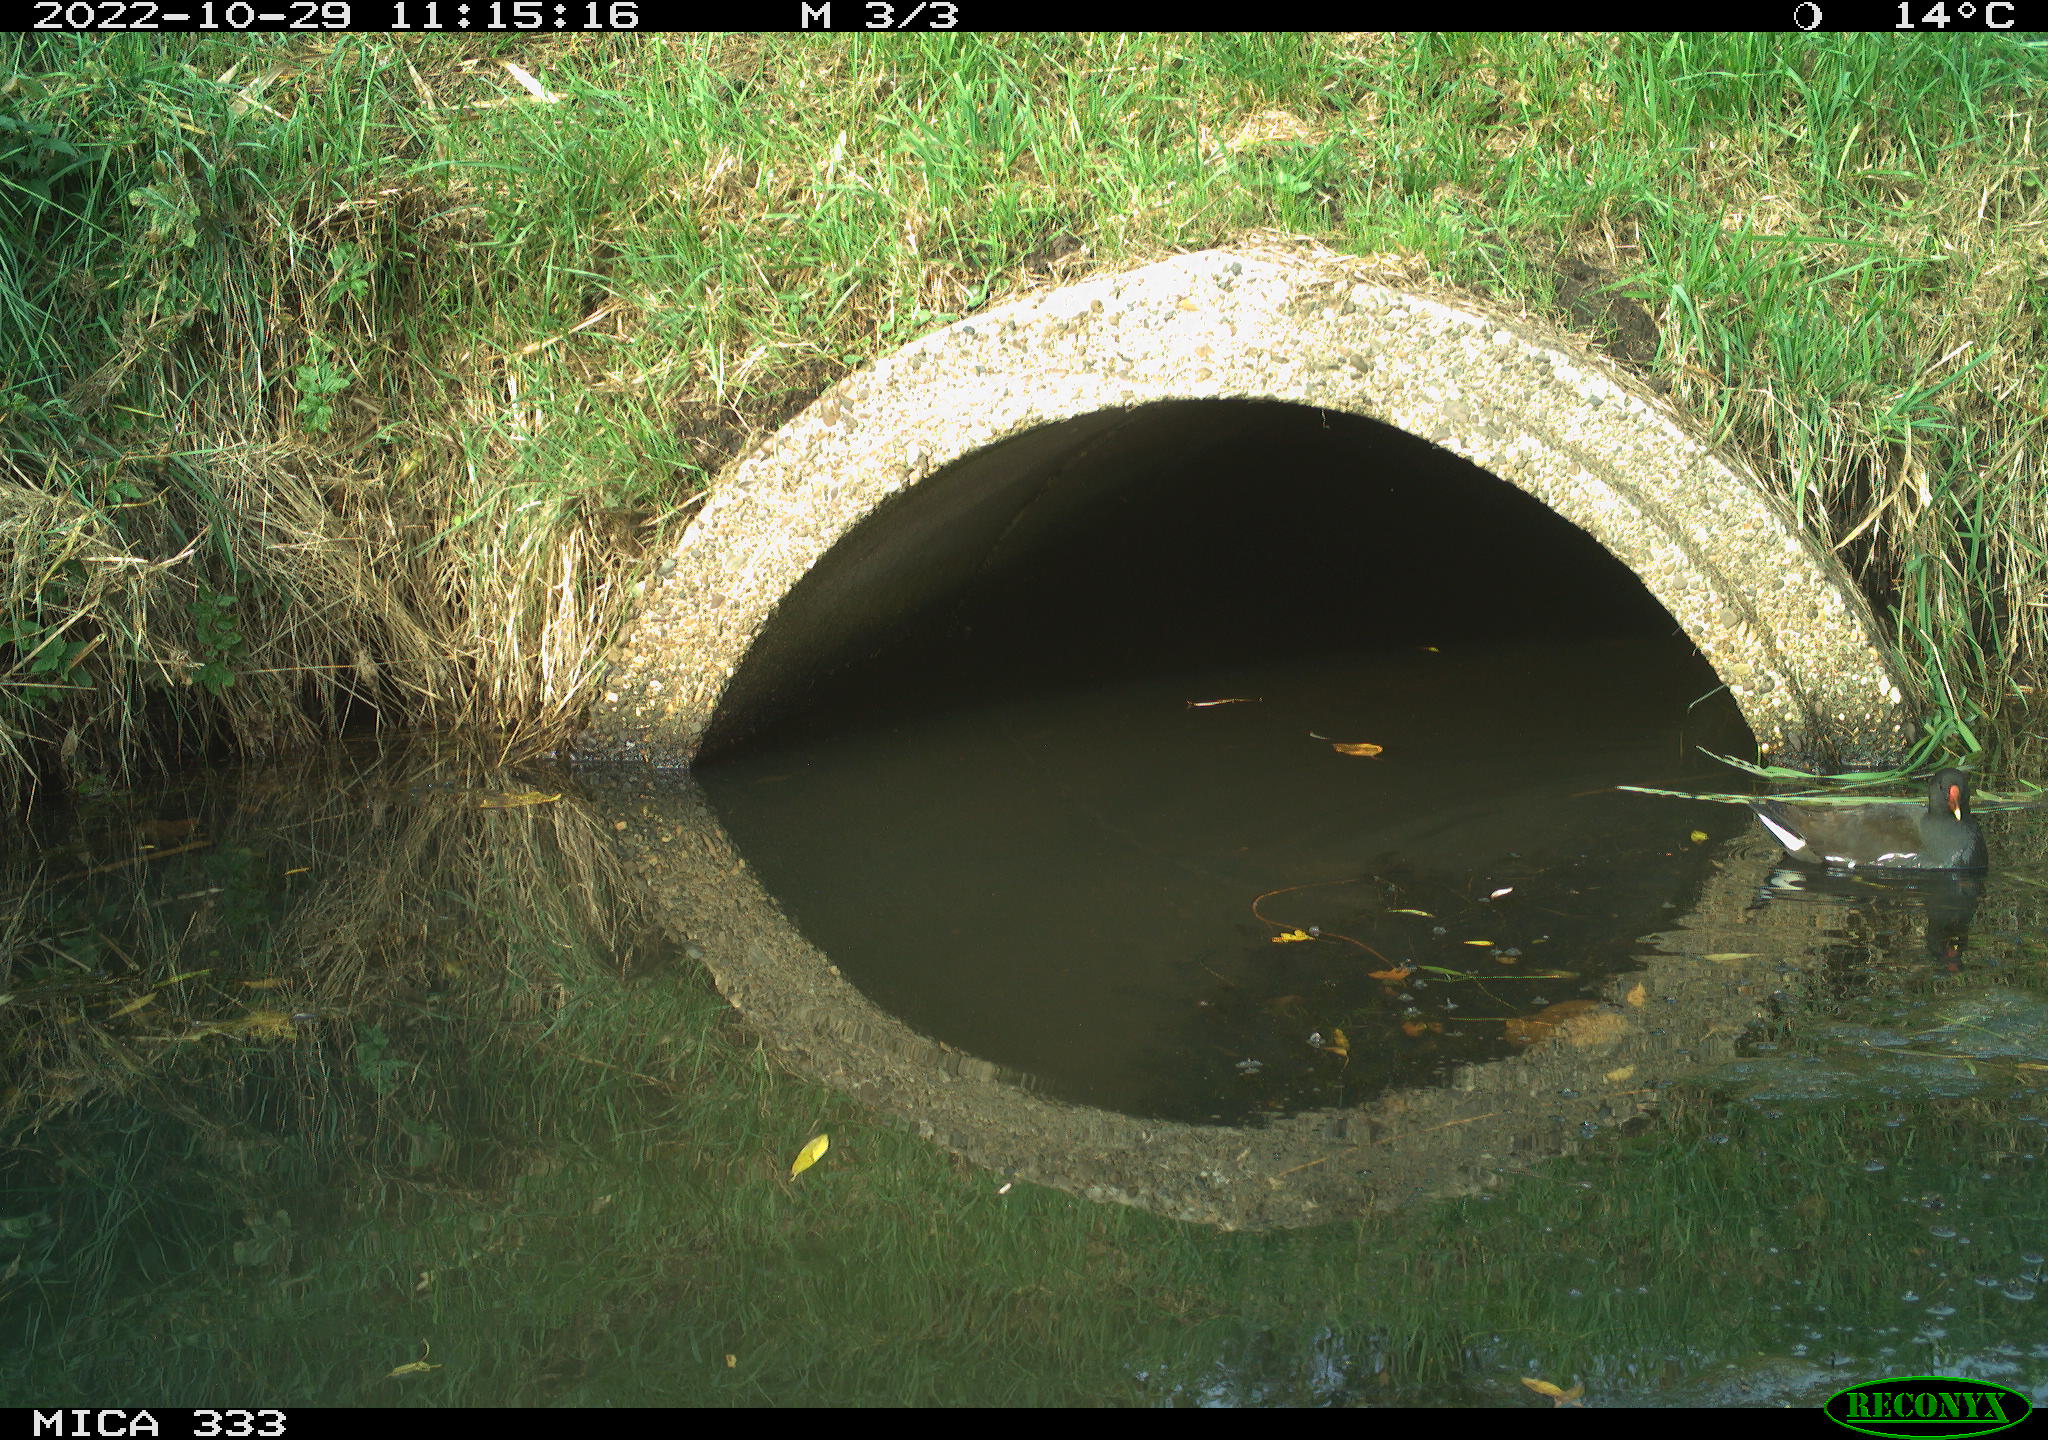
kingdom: Animalia
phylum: Chordata
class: Aves
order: Gruiformes
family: Rallidae
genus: Gallinula
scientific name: Gallinula chloropus
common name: Common moorhen
